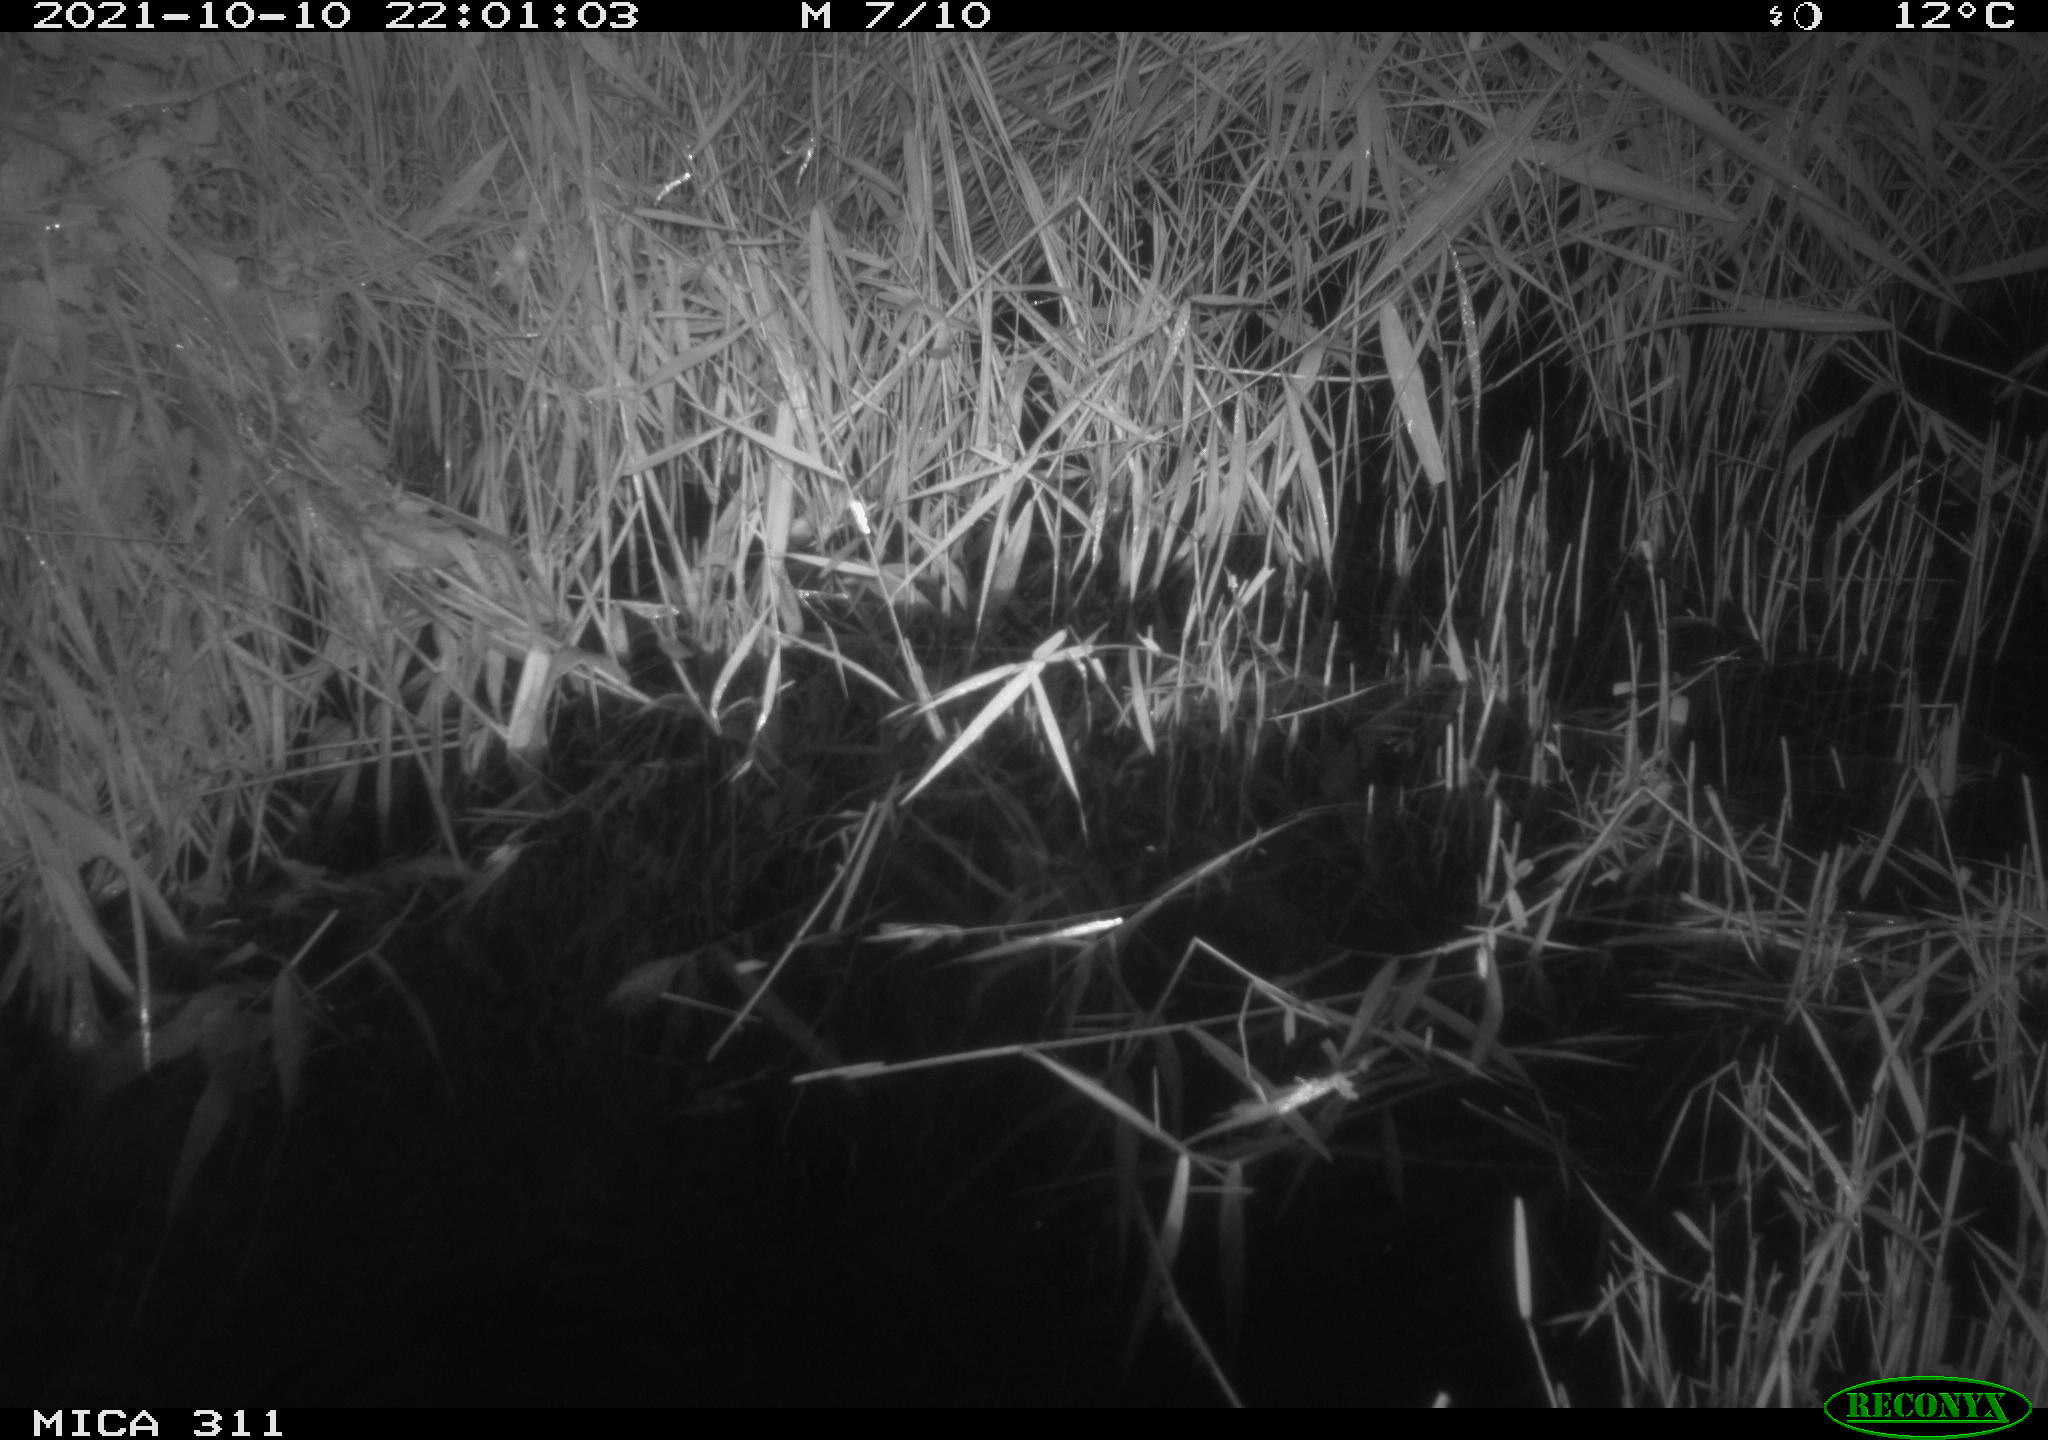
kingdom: Animalia
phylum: Chordata
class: Mammalia
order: Rodentia
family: Muridae
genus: Rattus
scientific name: Rattus norvegicus
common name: Brown rat
